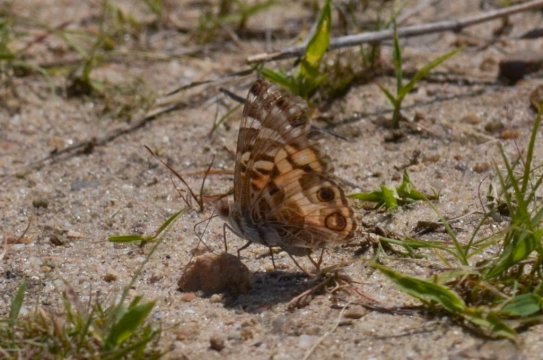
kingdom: Animalia
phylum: Arthropoda
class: Insecta
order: Lepidoptera
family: Nymphalidae
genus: Vanessa
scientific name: Vanessa virginiensis
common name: American Lady
